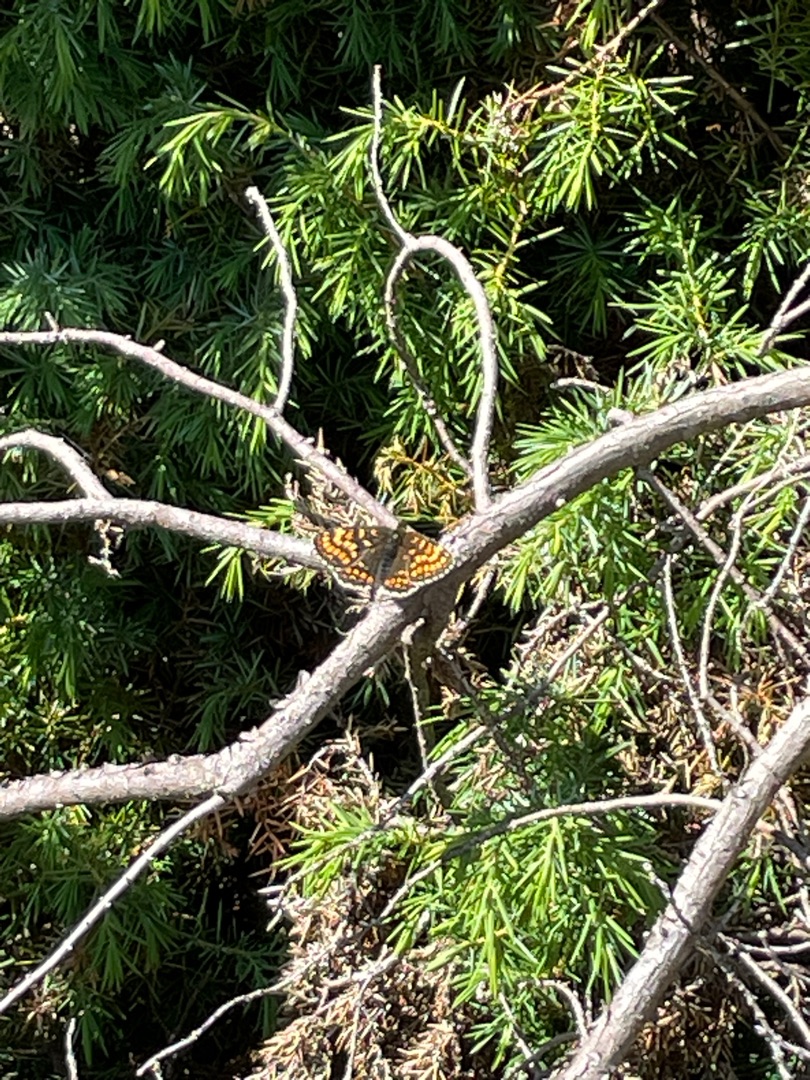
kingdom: Animalia
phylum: Arthropoda
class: Insecta
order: Lepidoptera
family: Nymphalidae
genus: Mellicta
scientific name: Mellicta athalia
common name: Brun pletvinge
